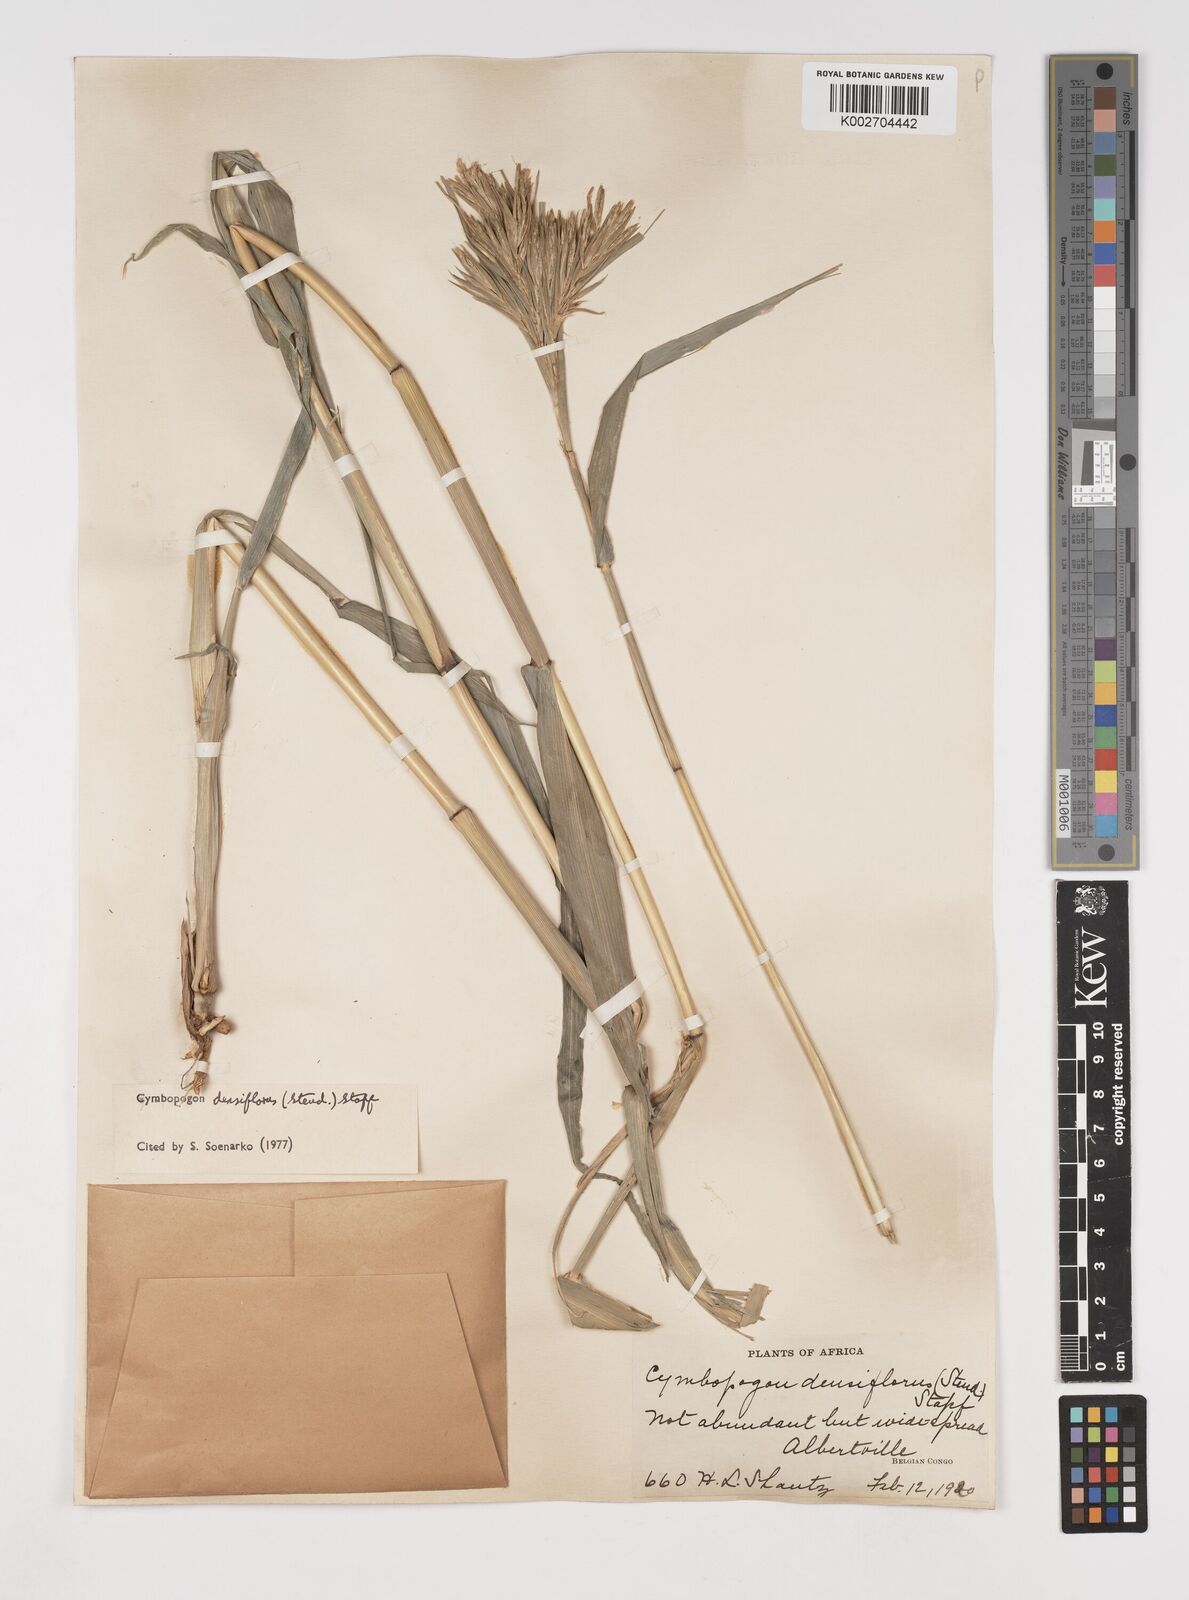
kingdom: Plantae
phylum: Tracheophyta
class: Liliopsida
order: Poales
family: Poaceae
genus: Cymbopogon
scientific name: Cymbopogon densiflorus
